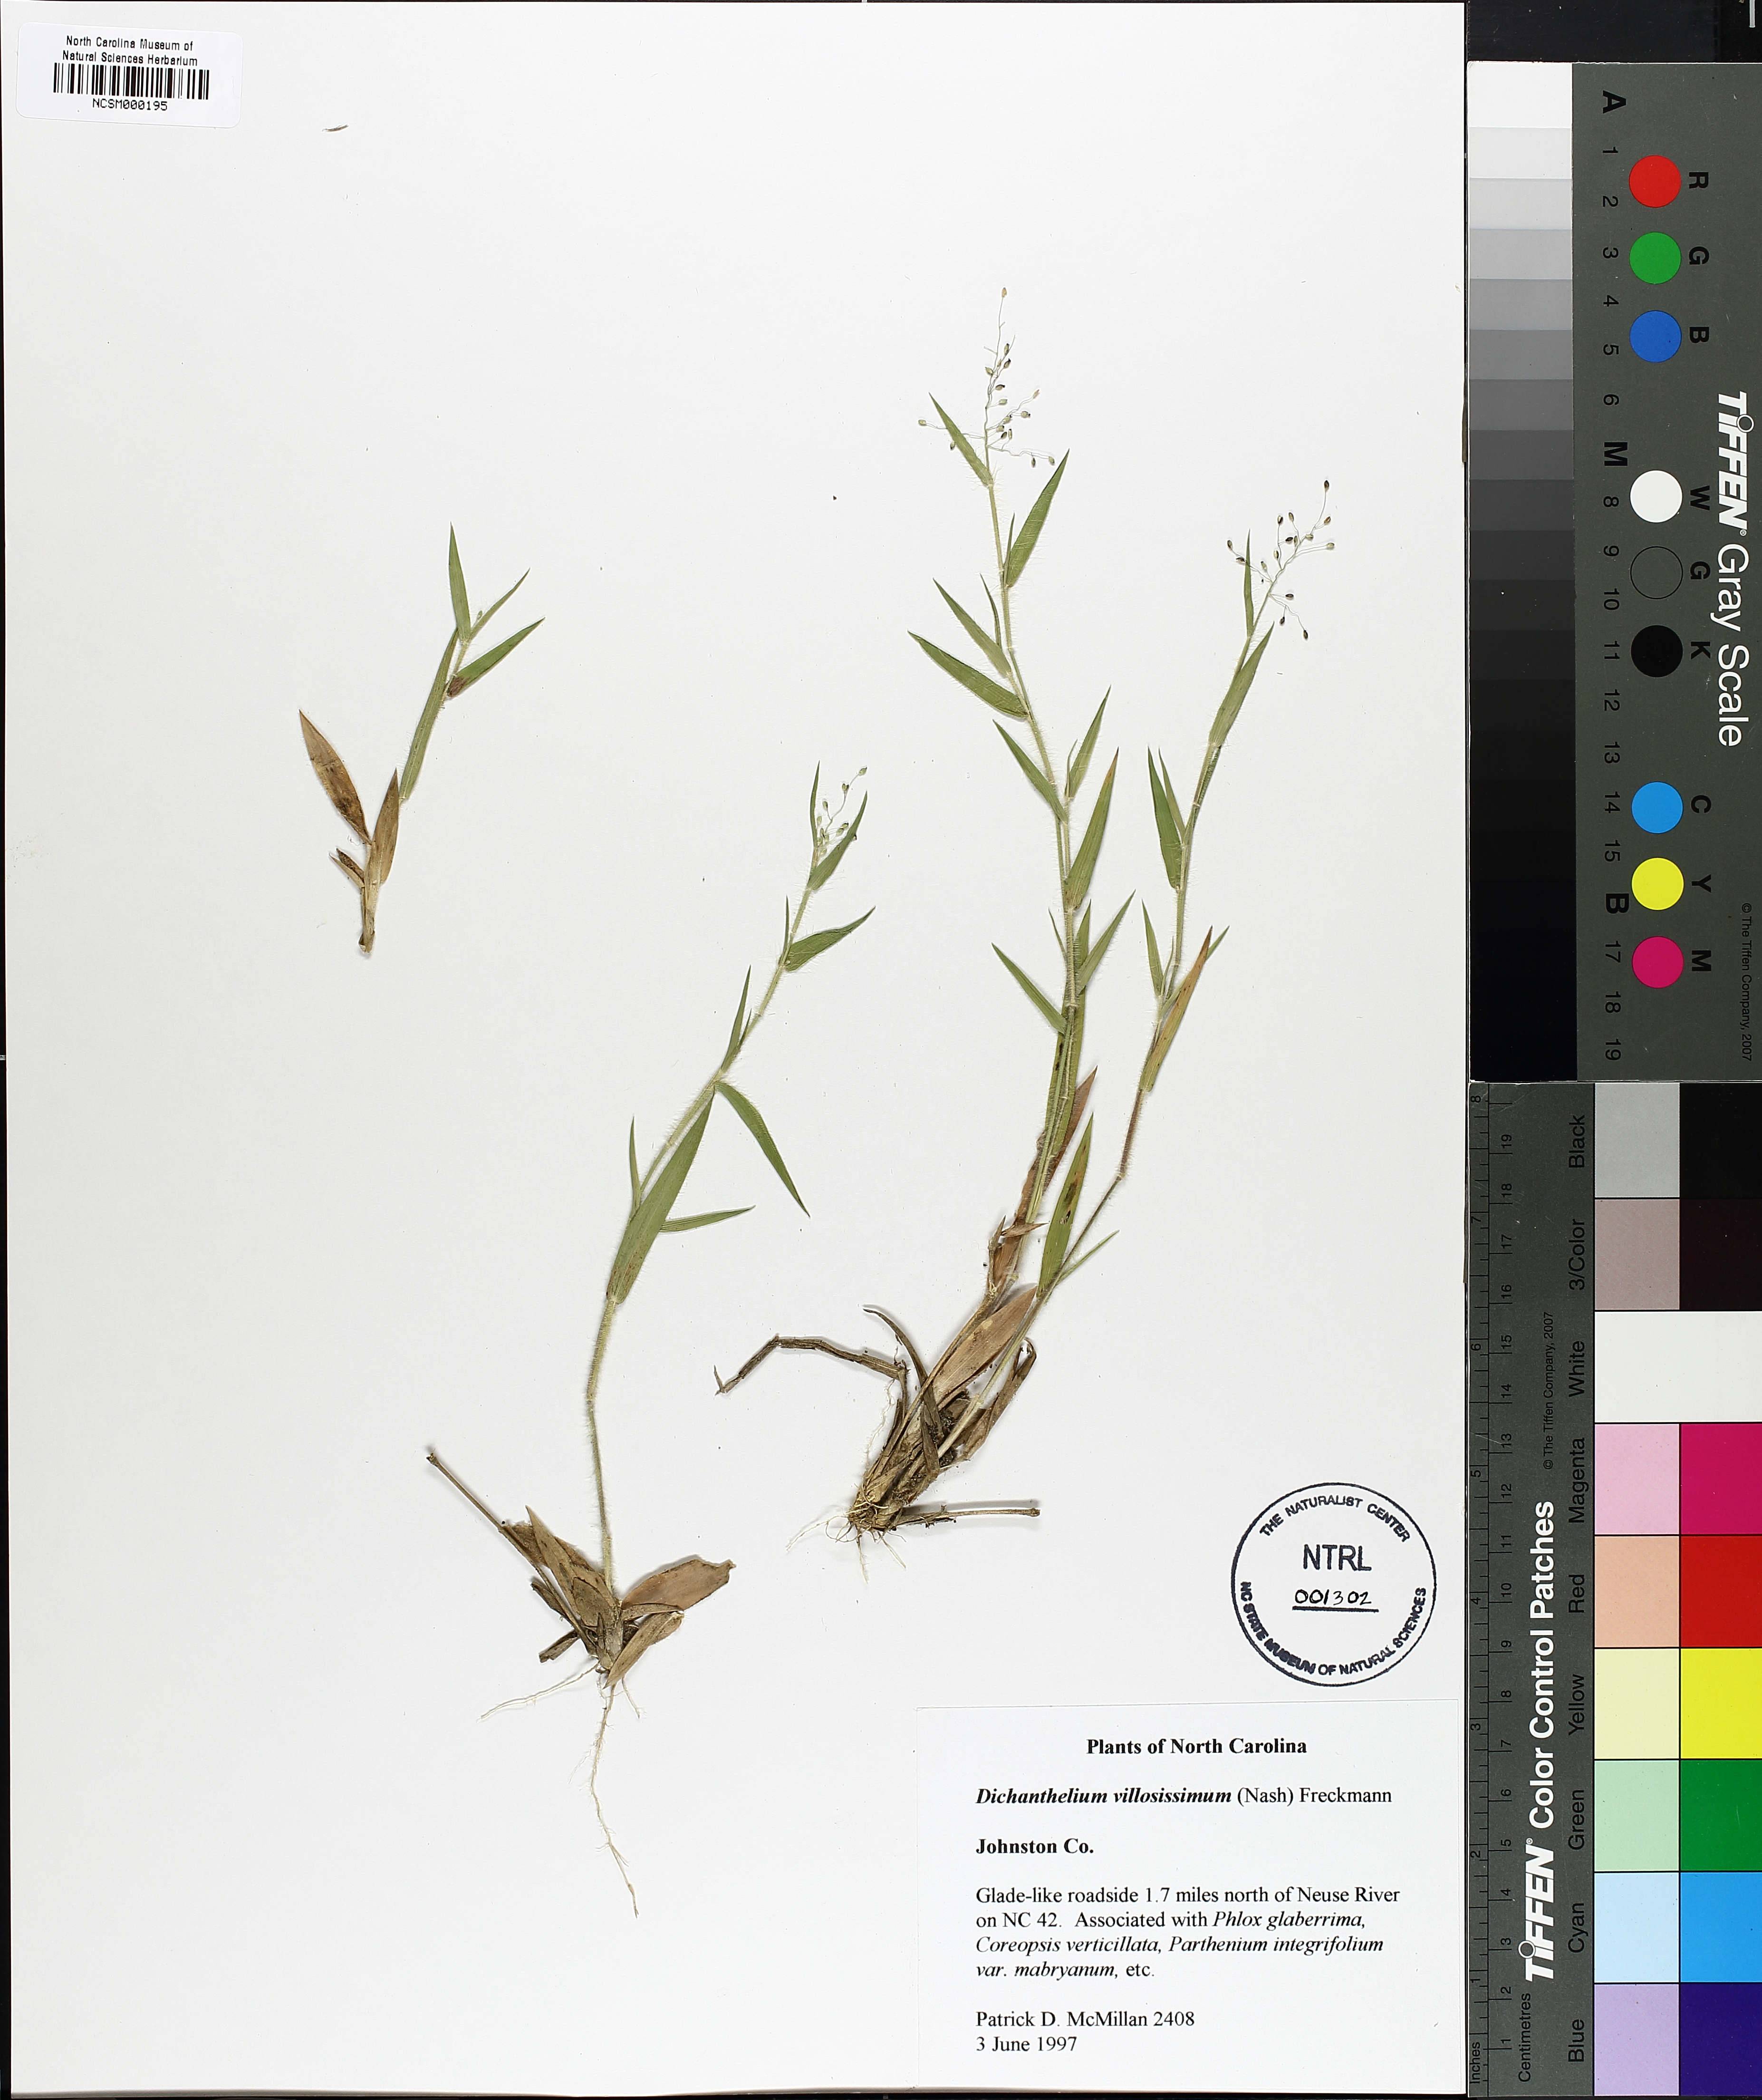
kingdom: Plantae
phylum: Tracheophyta
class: Liliopsida
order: Poales
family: Poaceae
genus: Dichanthelium
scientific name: Dichanthelium villosissimum
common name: White-haired panicgrass
